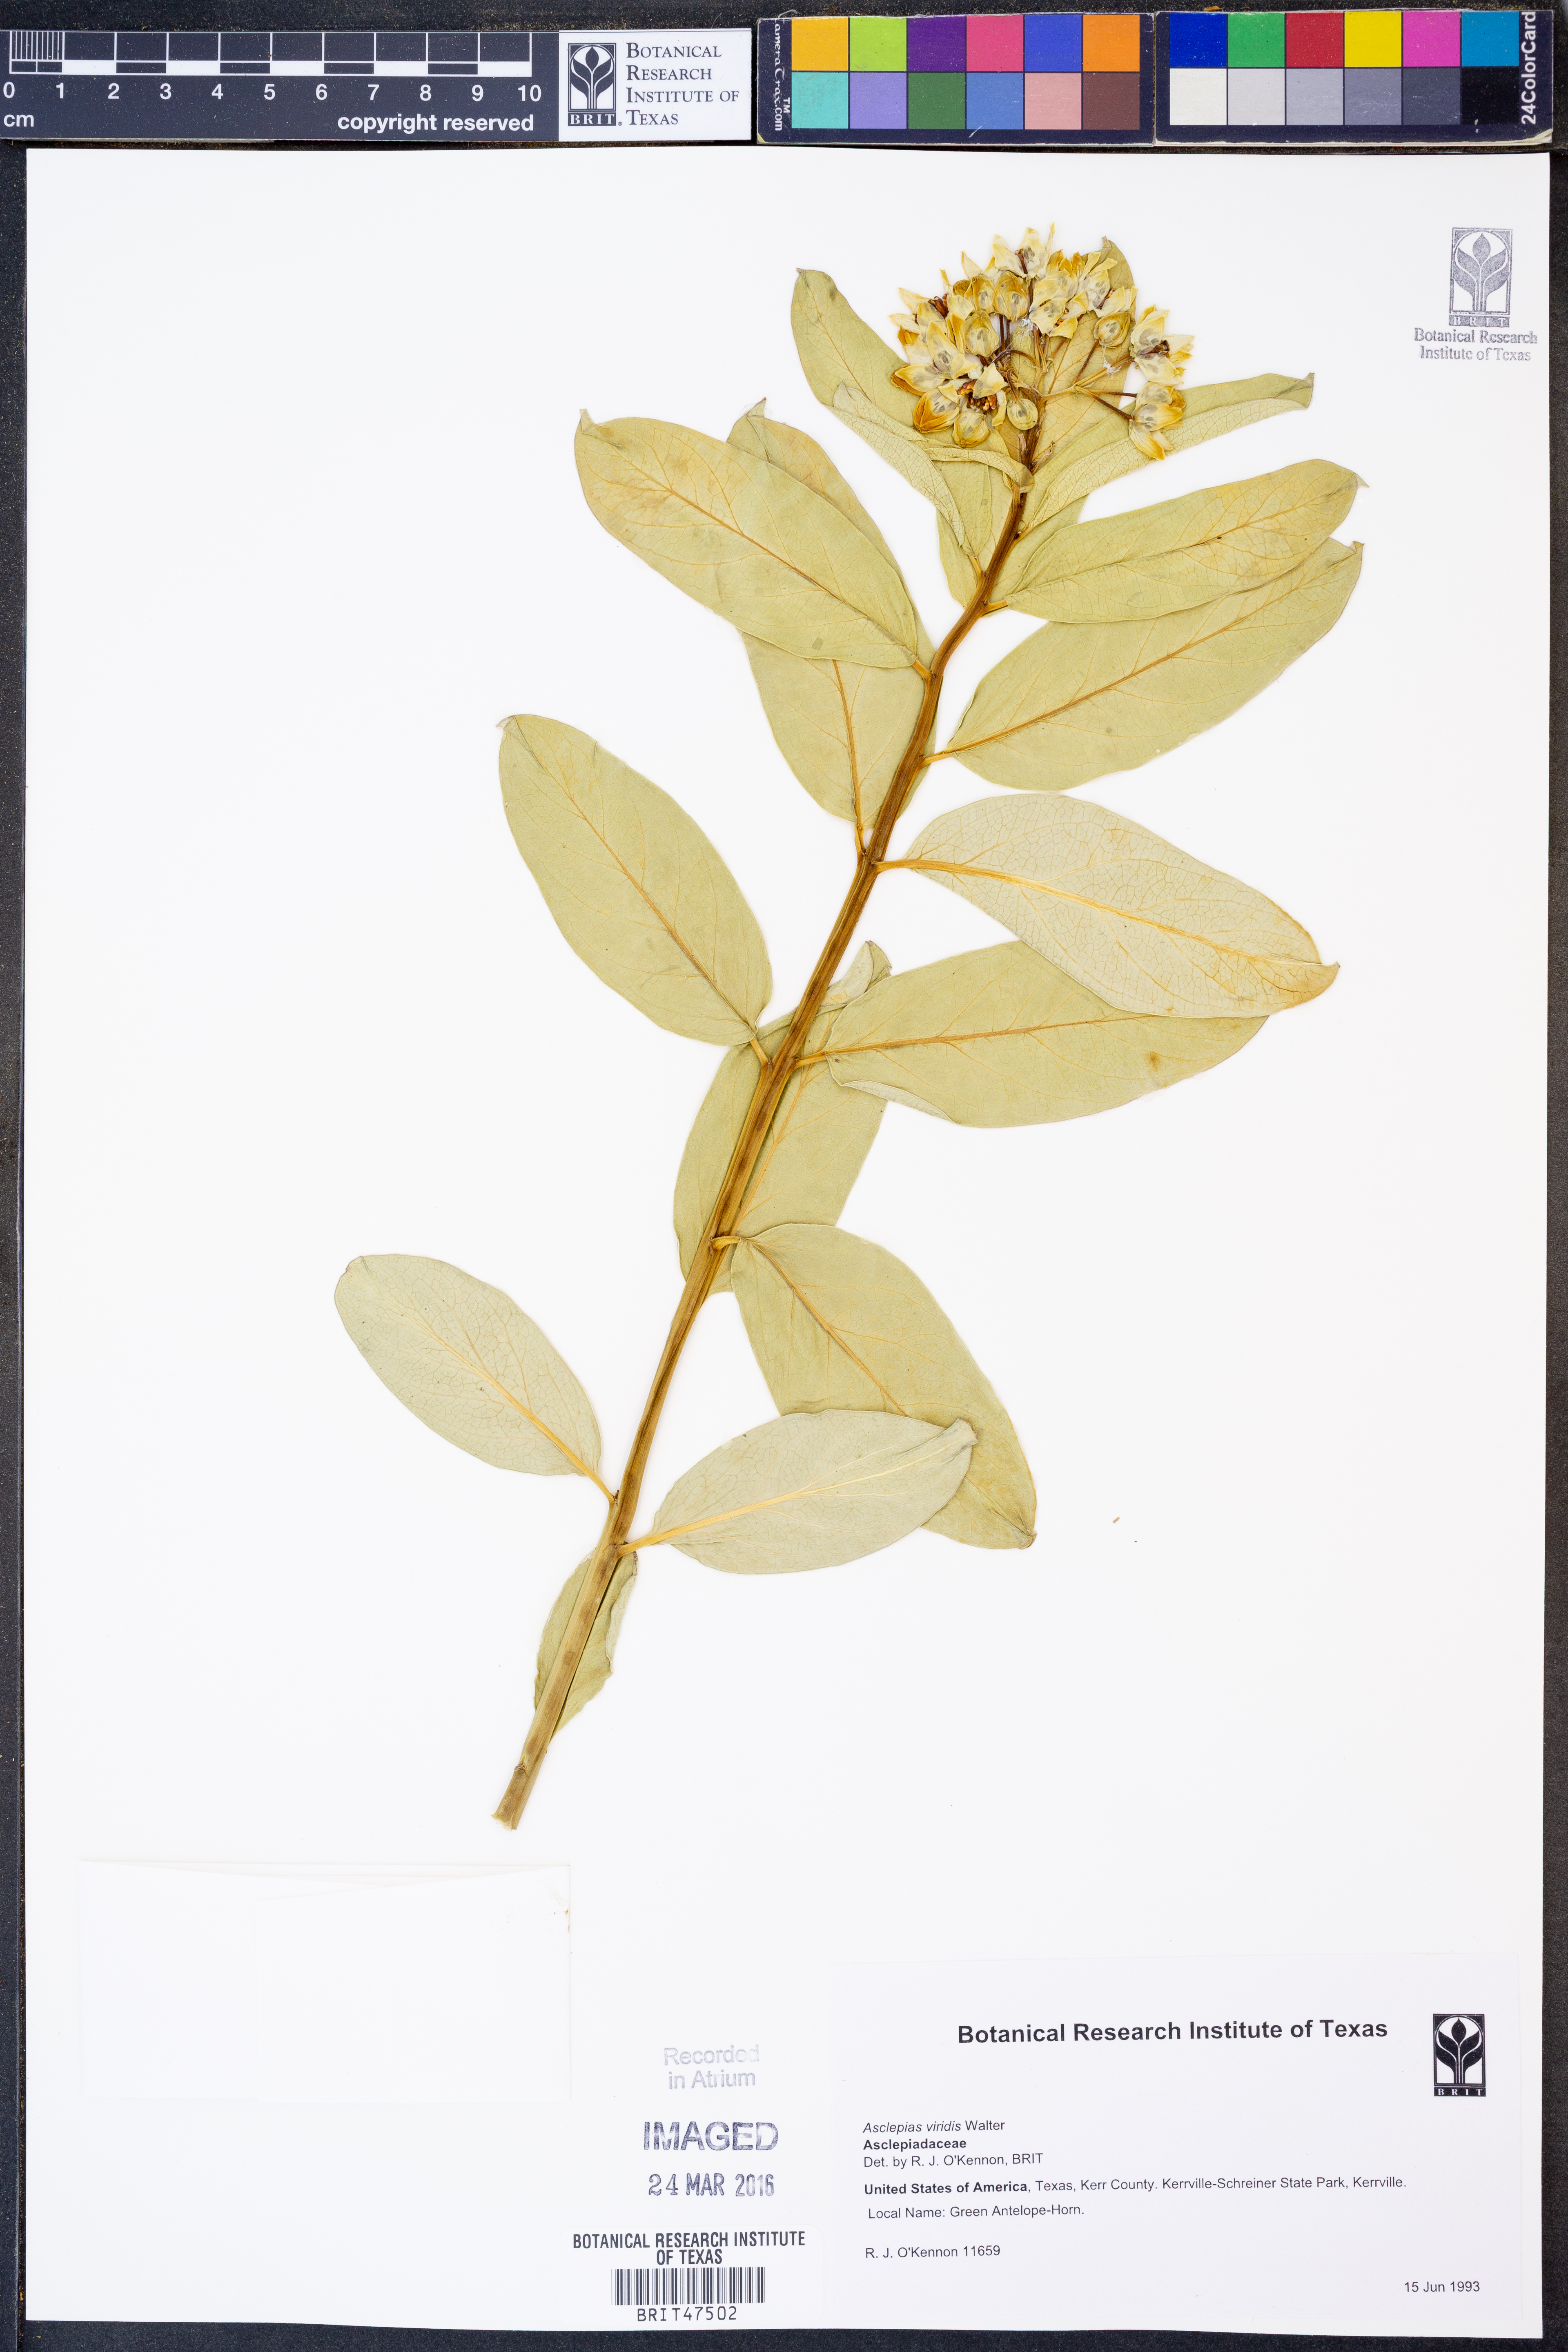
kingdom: Plantae
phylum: Tracheophyta
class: Magnoliopsida
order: Gentianales
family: Apocynaceae
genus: Asclepias
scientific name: Asclepias viridis
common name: Antelope-horns
